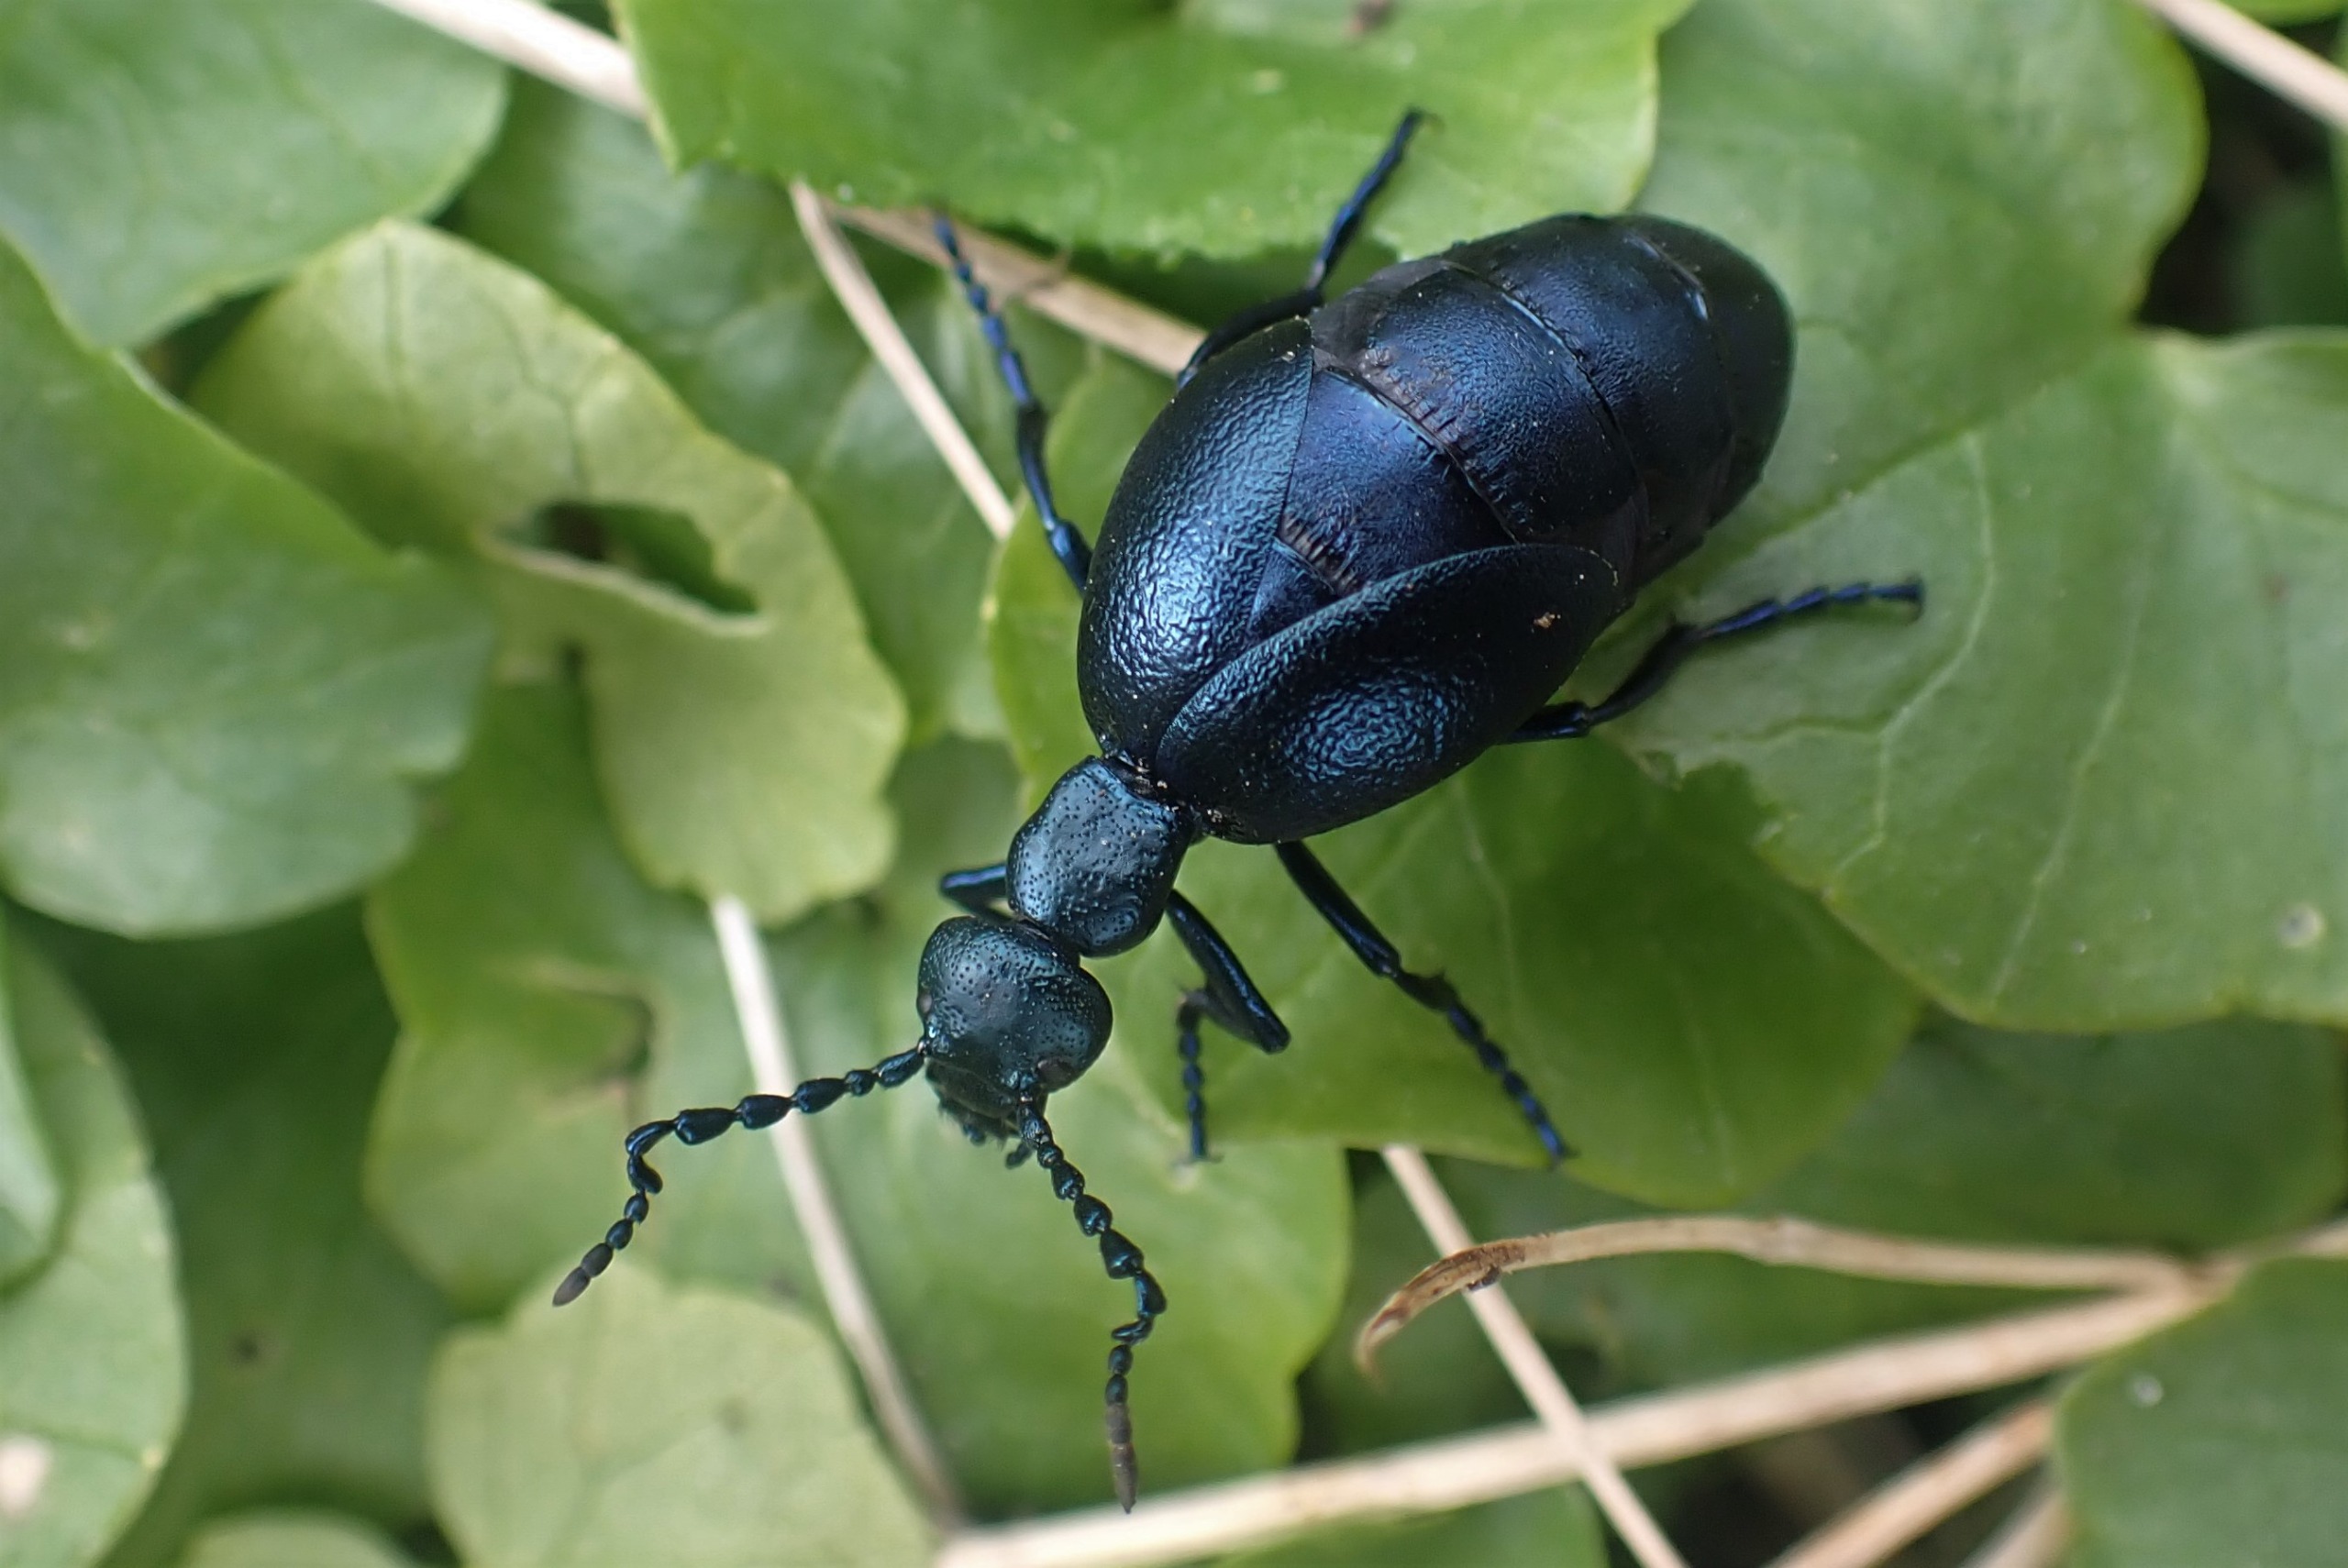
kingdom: Animalia
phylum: Arthropoda
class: Insecta
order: Coleoptera
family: Meloidae
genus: Meloe
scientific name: Meloe violaceus
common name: Blå oliebille
